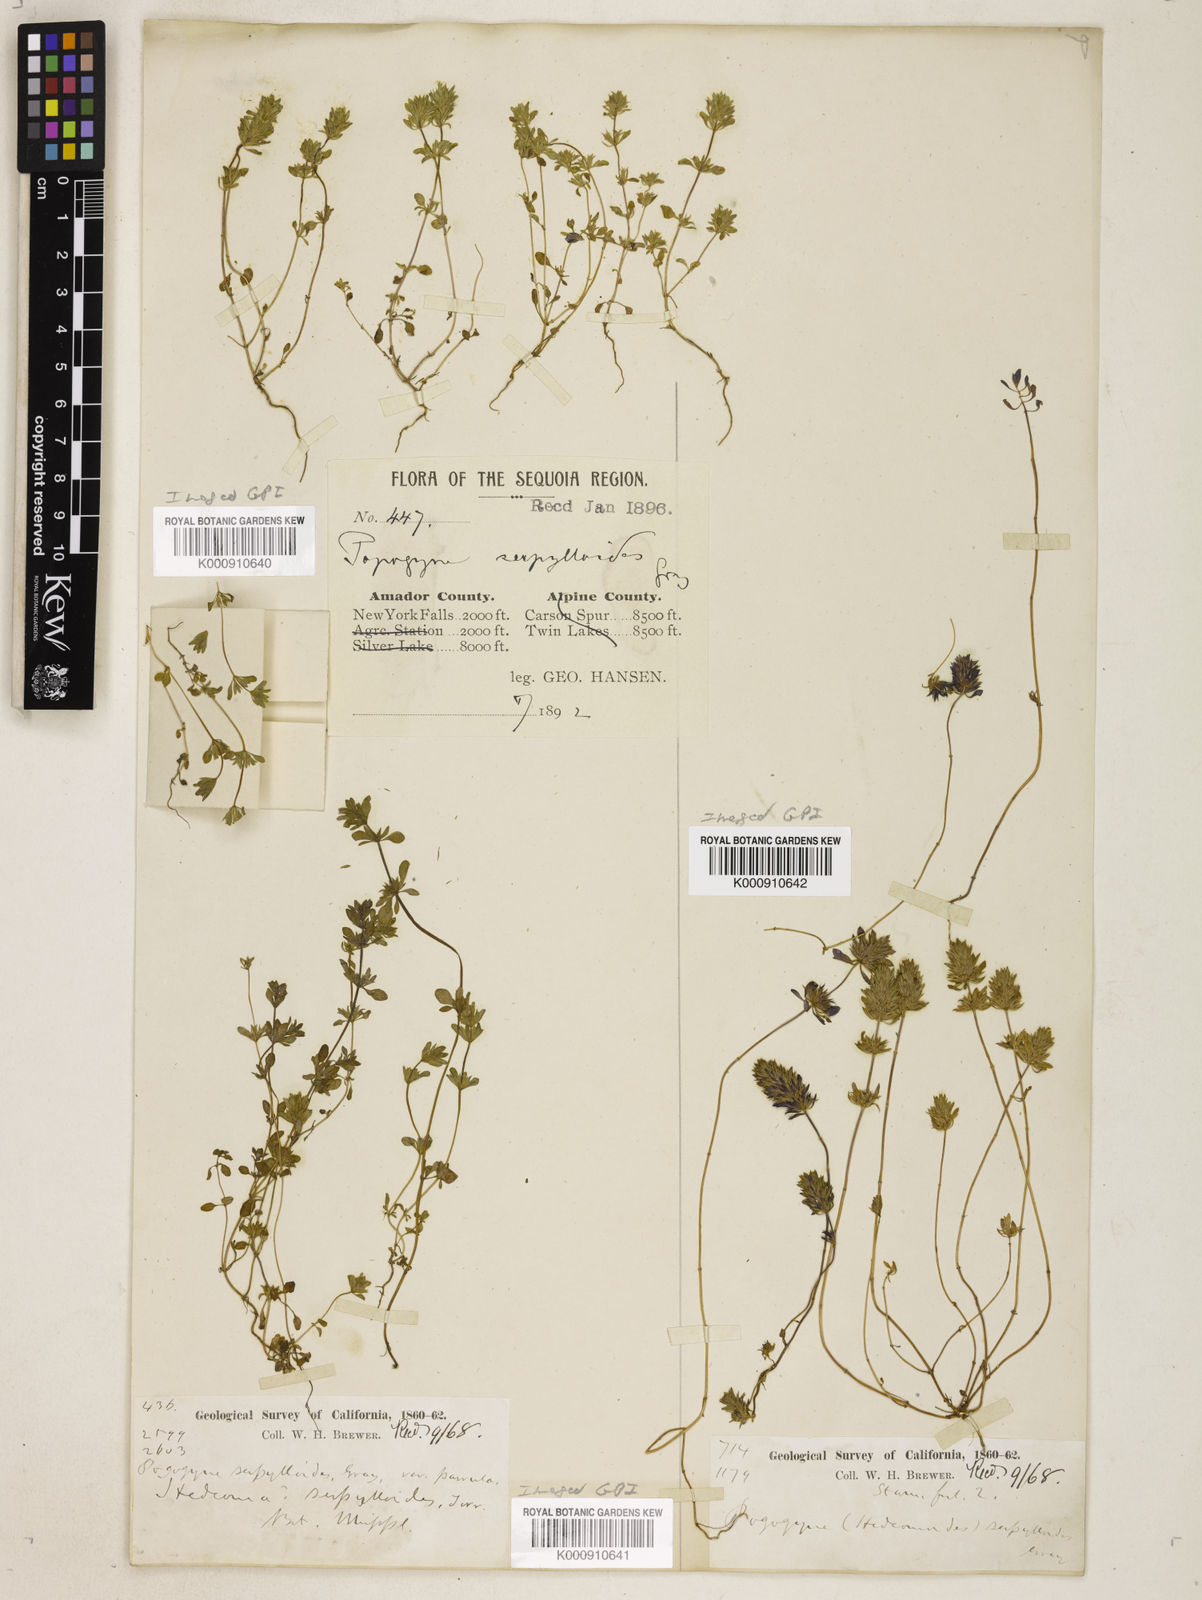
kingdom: Plantae
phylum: Tracheophyta
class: Magnoliopsida
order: Lamiales
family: Lamiaceae
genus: Pogogyne
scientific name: Pogogyne serpylloides
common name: Thymeleaf mesamint
